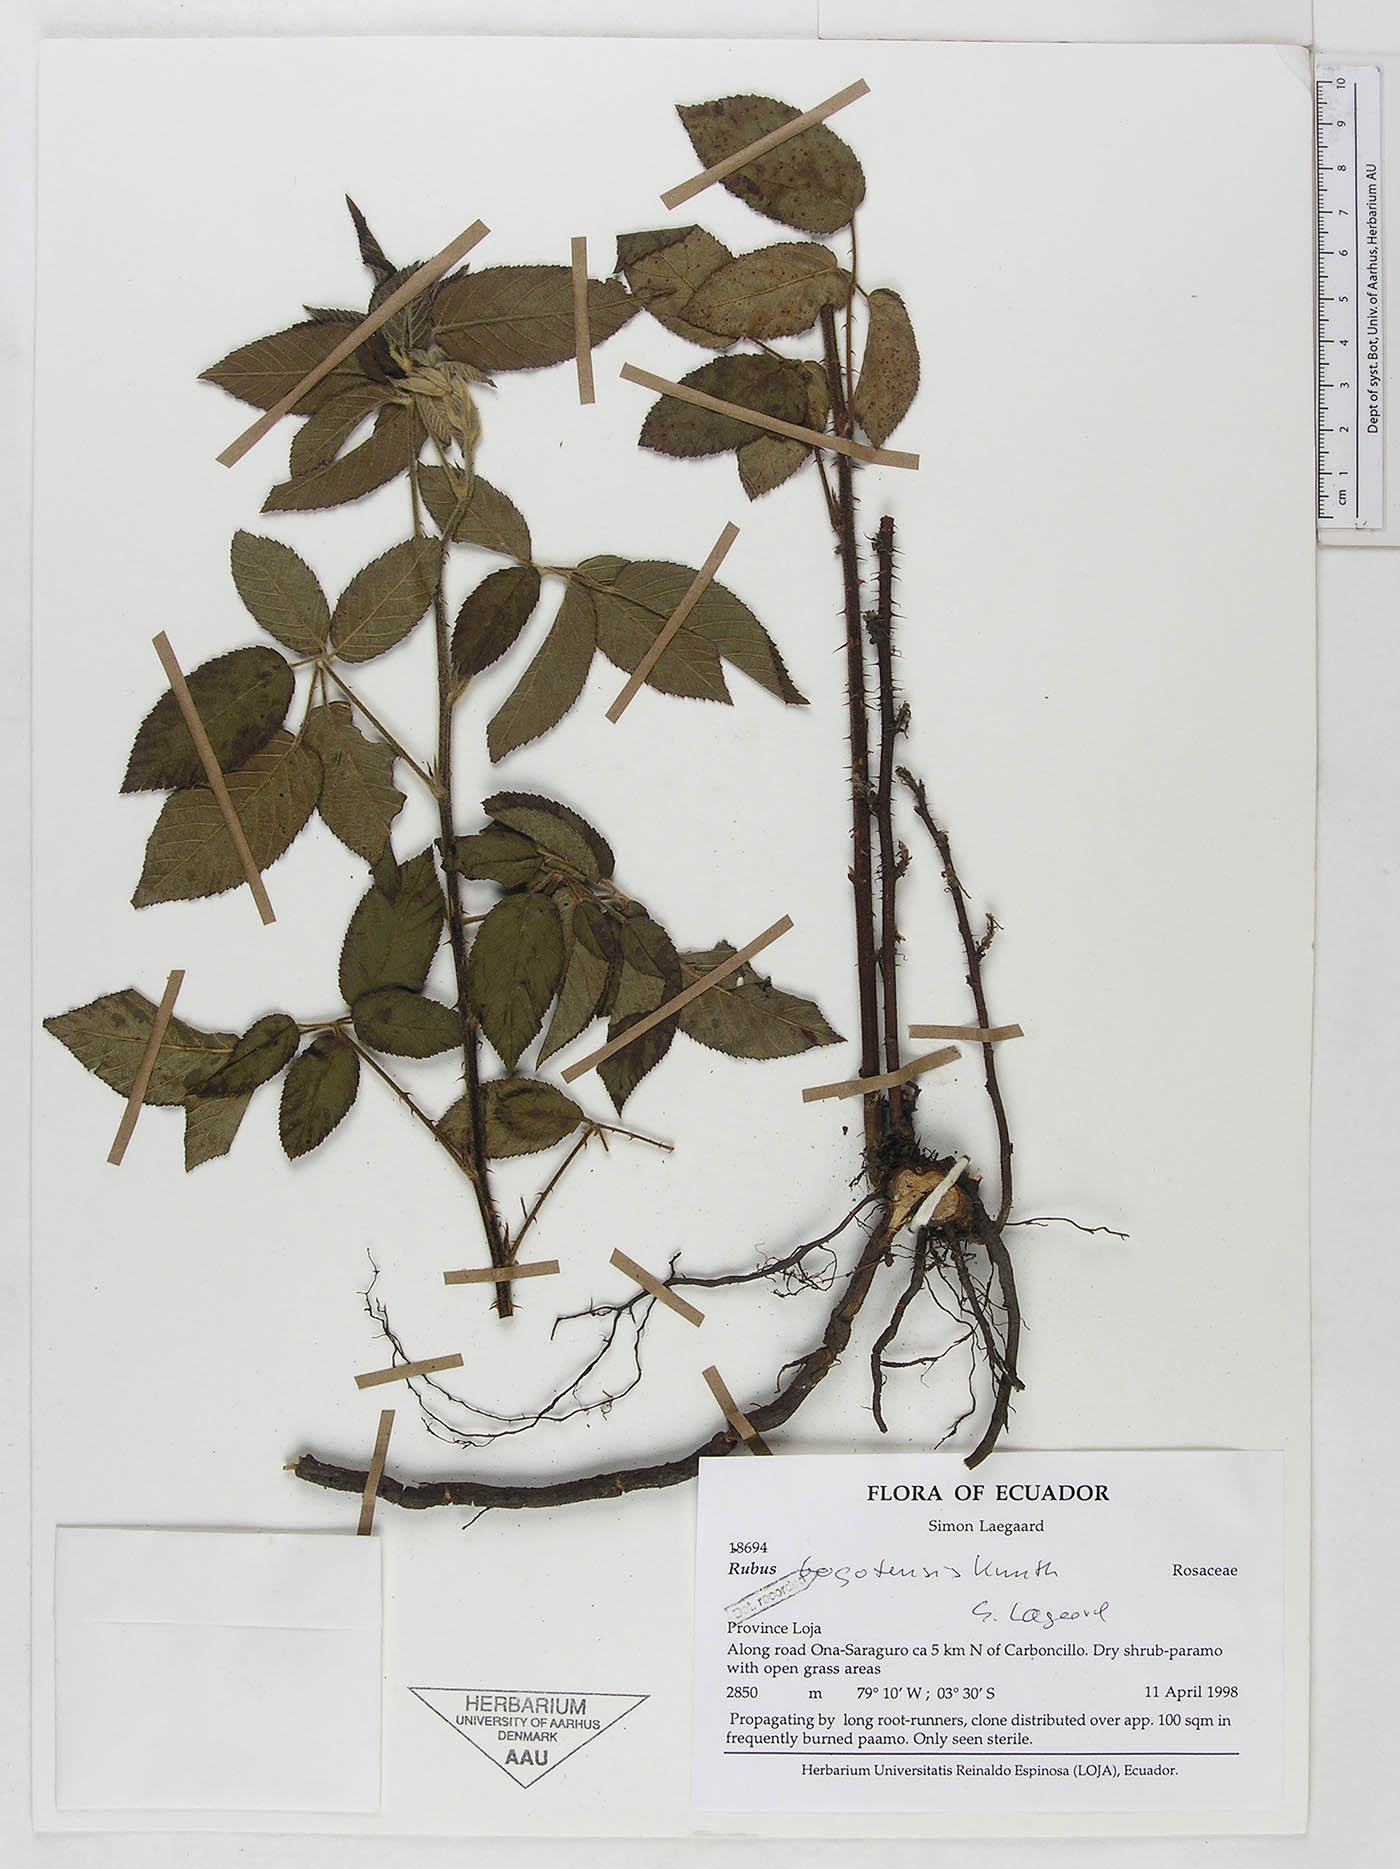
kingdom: Plantae
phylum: Tracheophyta
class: Magnoliopsida
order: Rosales
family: Rosaceae
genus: Rubus
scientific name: Rubus bogotensis
